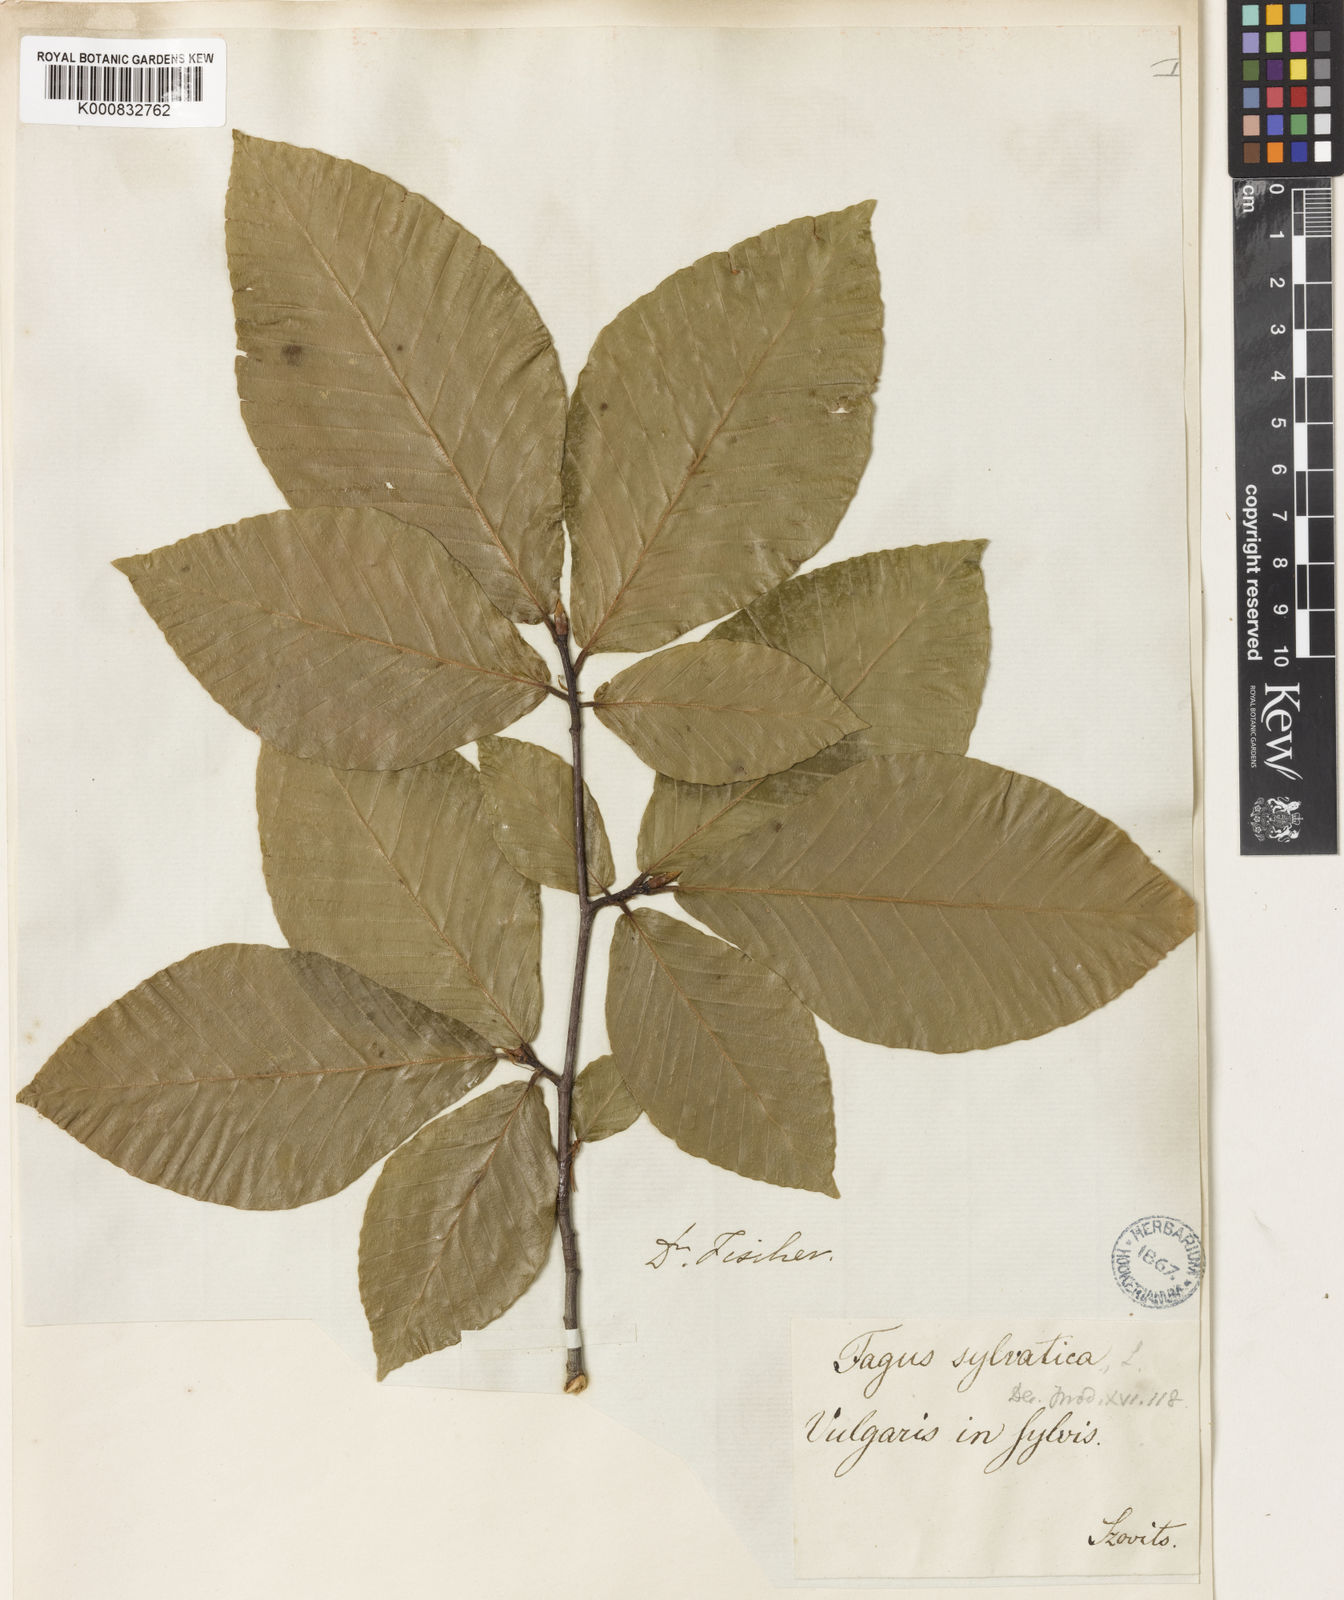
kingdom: Plantae
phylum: Tracheophyta
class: Magnoliopsida
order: Fagales
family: Fagaceae
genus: Fagus
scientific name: Fagus orientalis
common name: Oriental beech
